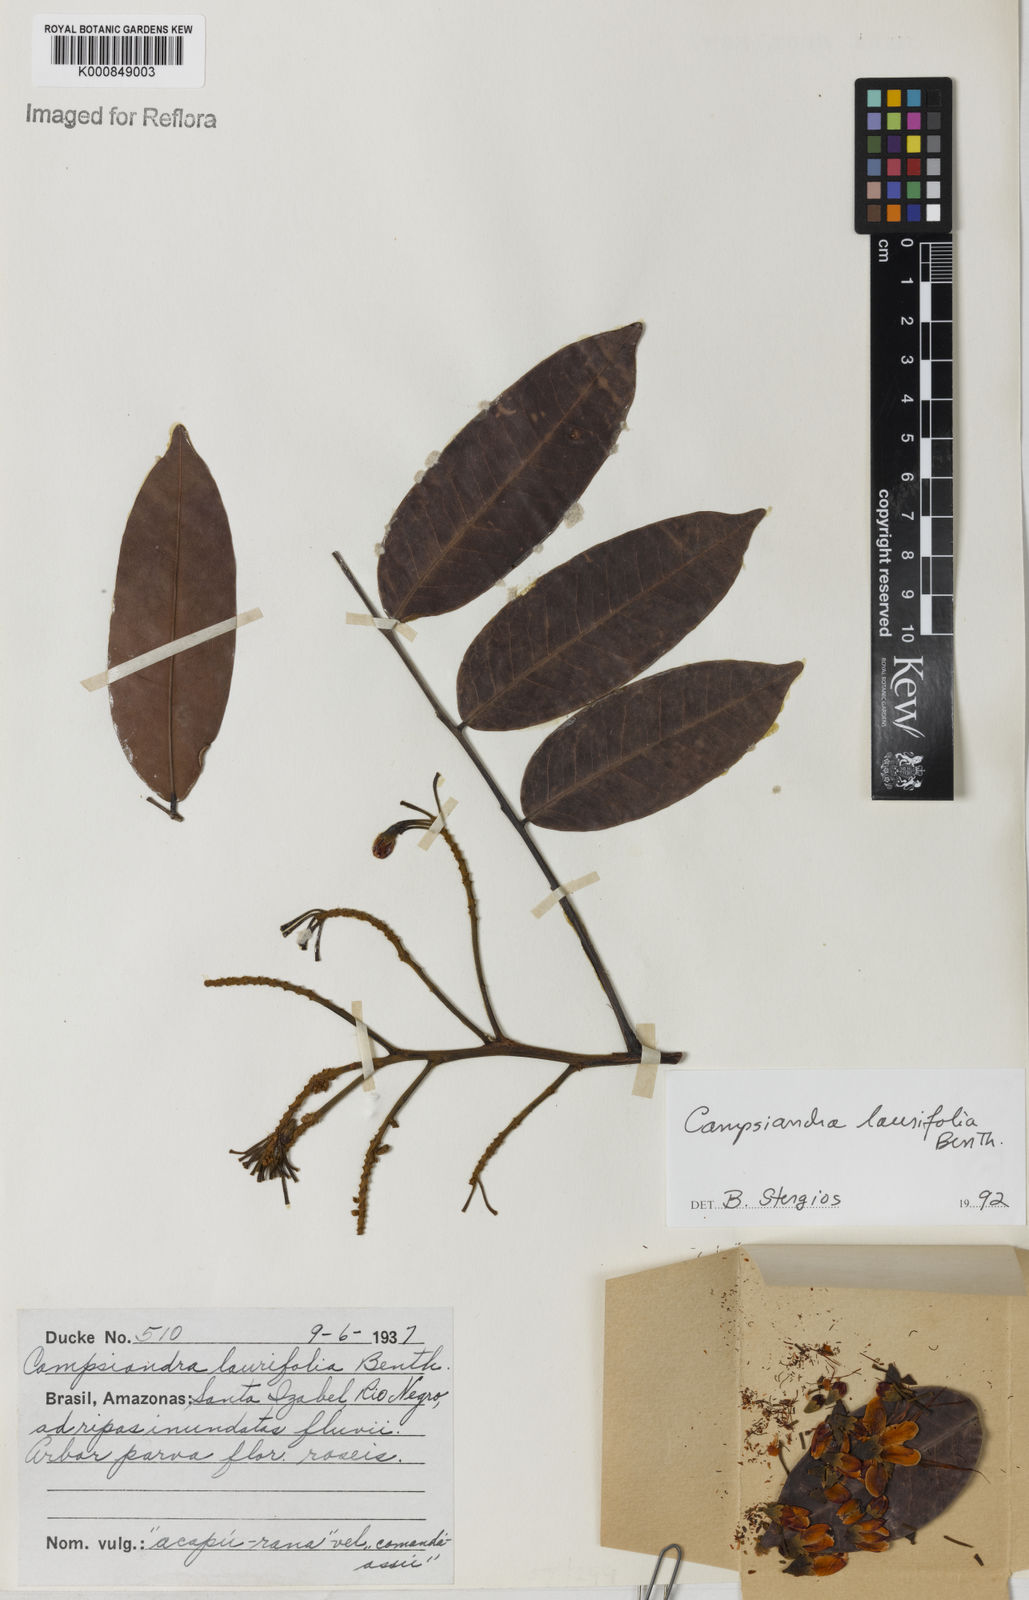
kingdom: Plantae
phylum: Tracheophyta
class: Magnoliopsida
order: Fabales
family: Fabaceae
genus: Campsiandra
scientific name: Campsiandra laurifolia
